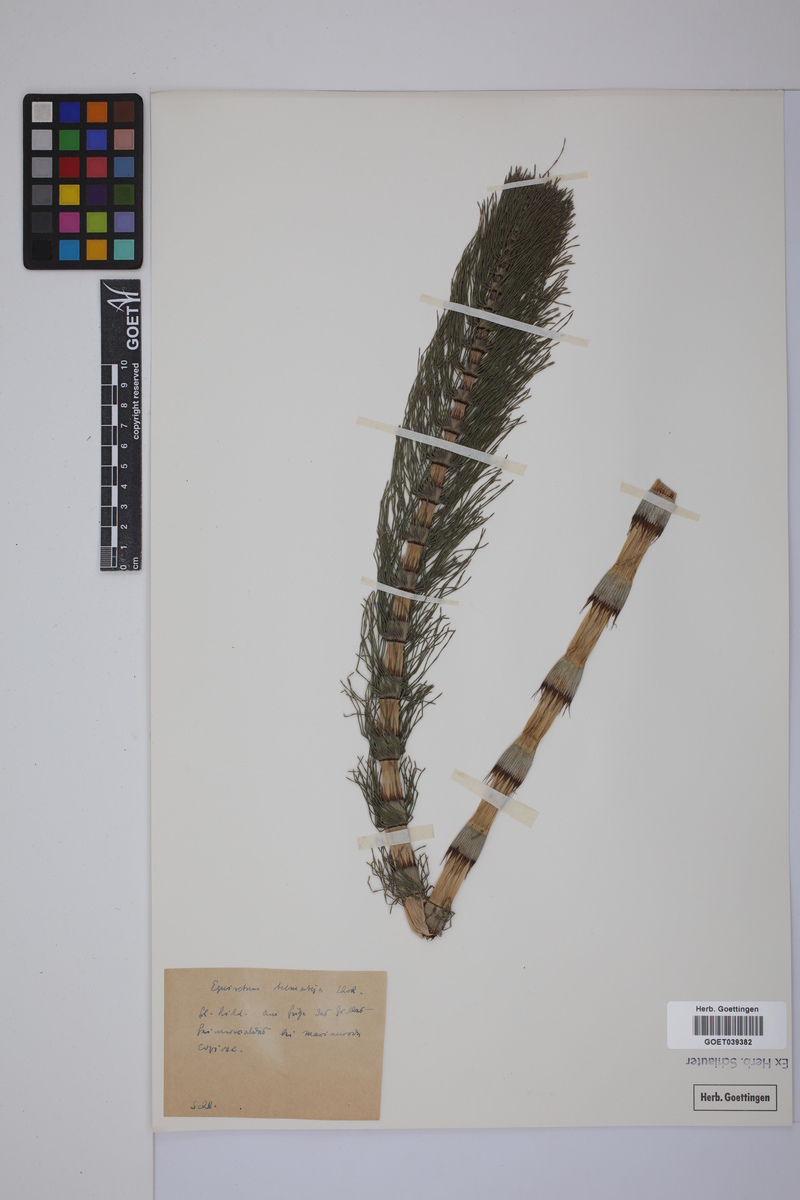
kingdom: Plantae
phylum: Tracheophyta
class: Polypodiopsida
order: Equisetales
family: Equisetaceae
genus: Equisetum
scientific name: Equisetum telmateia
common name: Great horsetail
